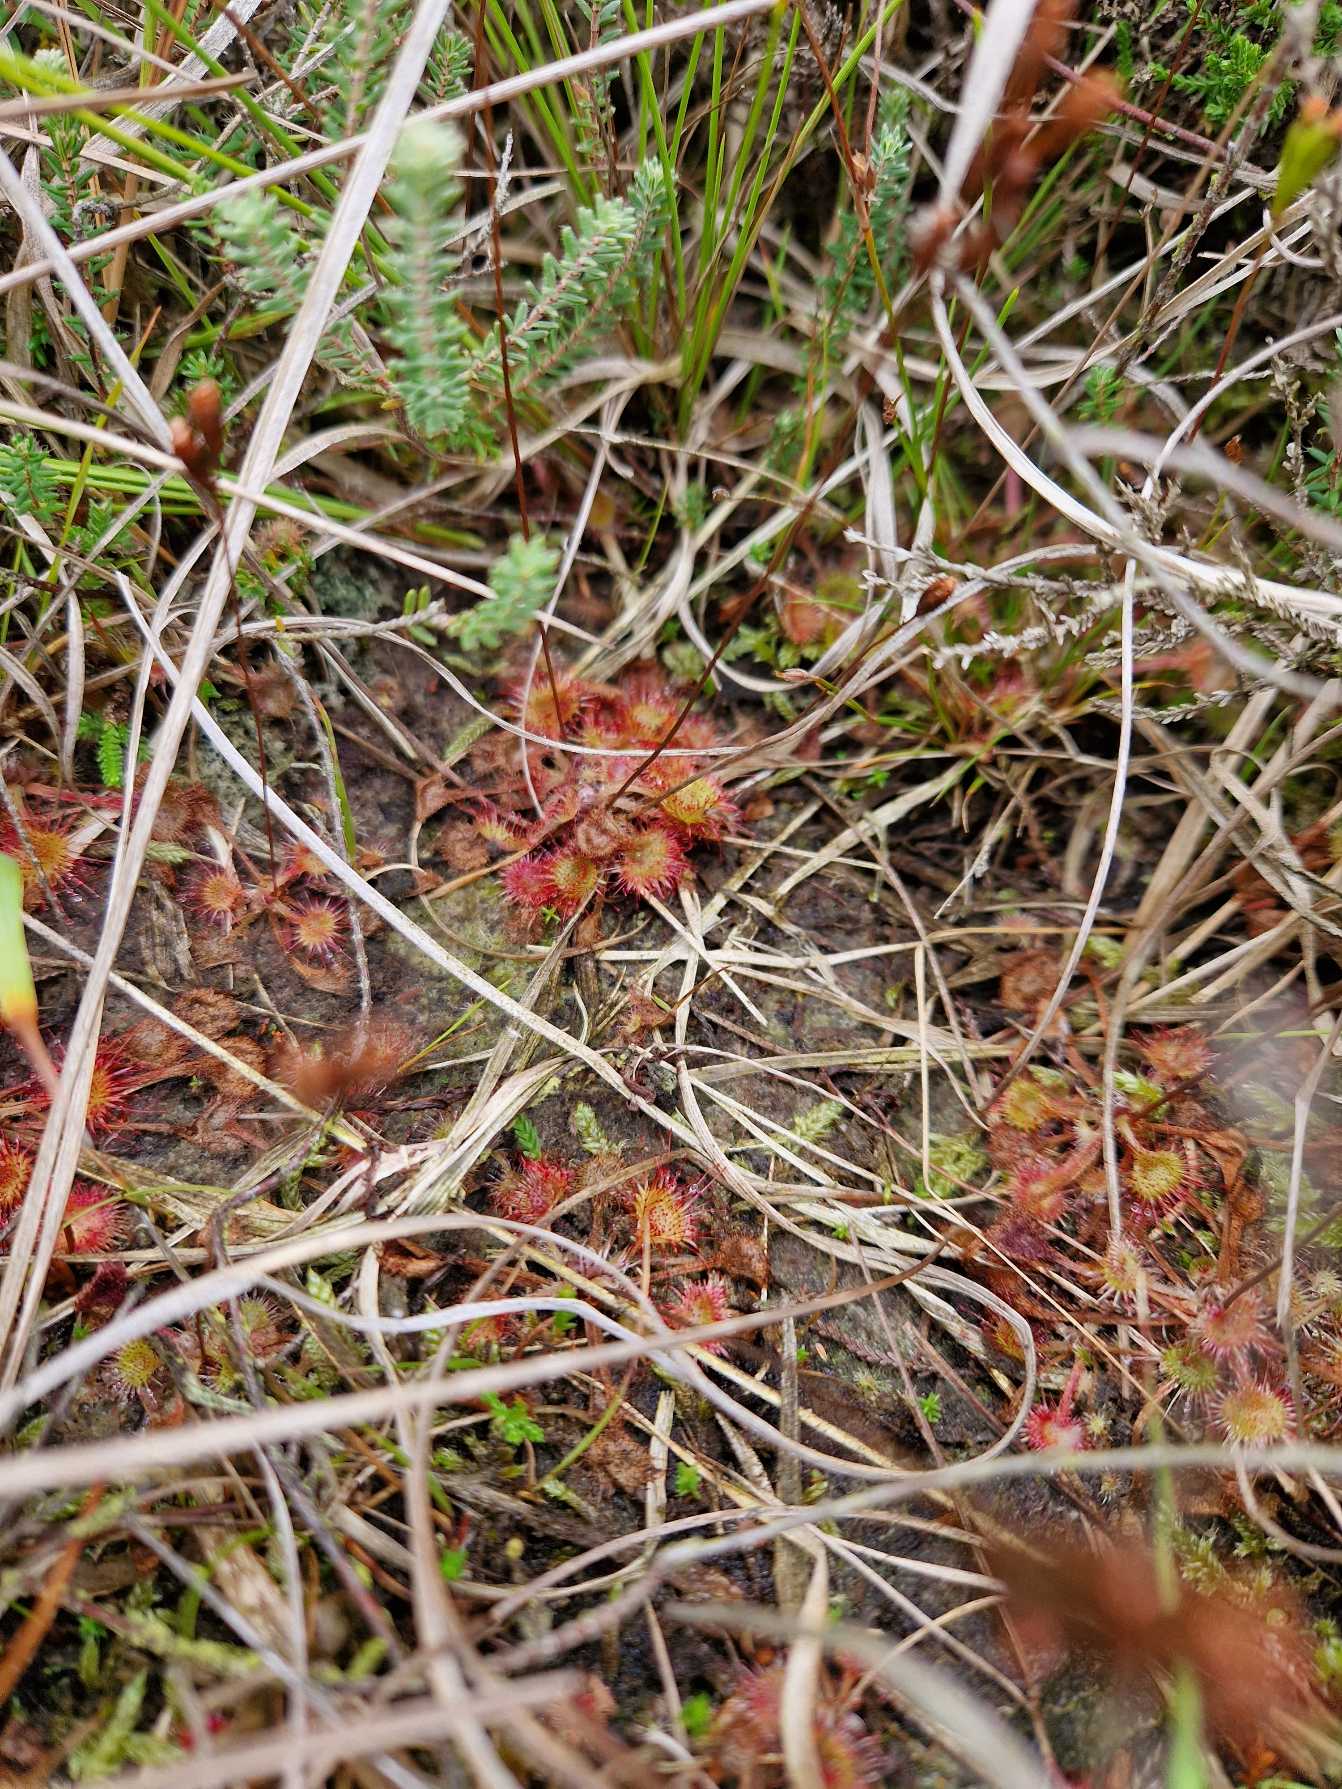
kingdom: Plantae
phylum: Tracheophyta
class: Magnoliopsida
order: Caryophyllales
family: Droseraceae
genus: Drosera
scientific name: Drosera rotundifolia
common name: Rundbladet soldug
